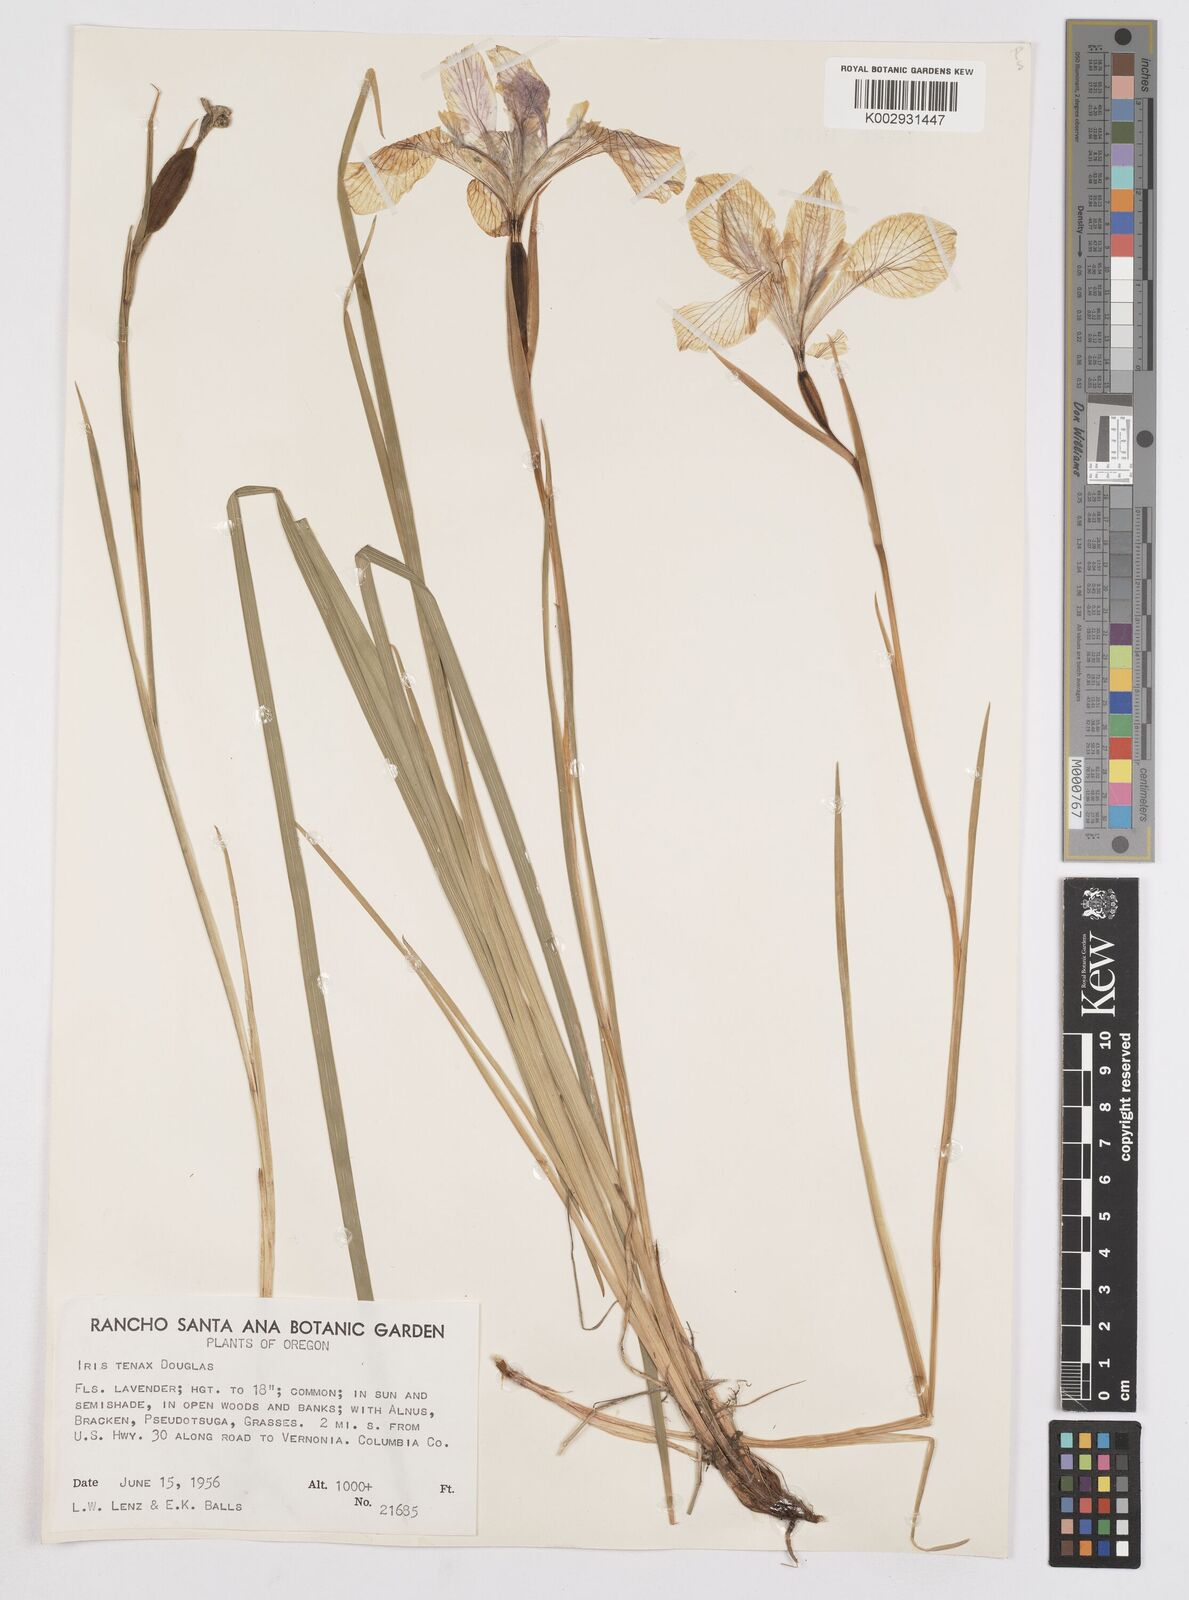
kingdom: Plantae
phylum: Tracheophyta
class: Liliopsida
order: Asparagales
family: Iridaceae
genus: Iris
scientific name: Iris tenax
